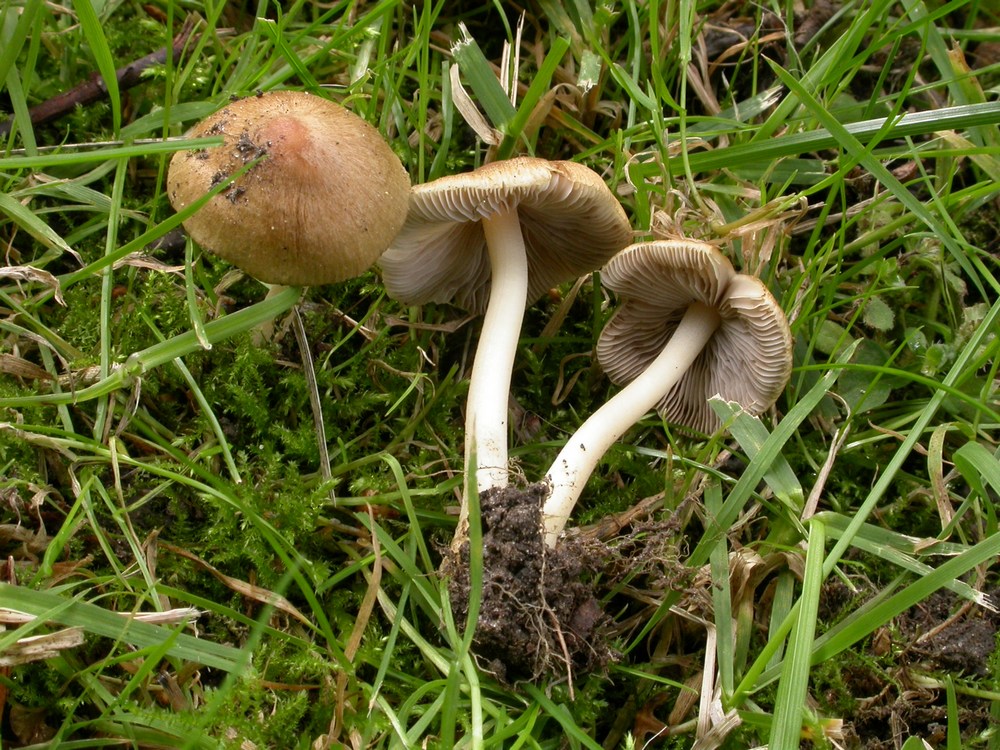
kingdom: Fungi
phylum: Basidiomycota
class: Agaricomycetes
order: Agaricales
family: Inocybaceae
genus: Inocybe
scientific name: Inocybe mixtilis
